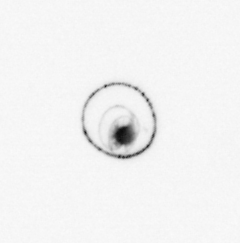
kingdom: Chromista
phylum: Myzozoa
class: Dinophyceae
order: Noctilucales
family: Noctilucaceae
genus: Noctiluca
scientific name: Noctiluca scintillans
